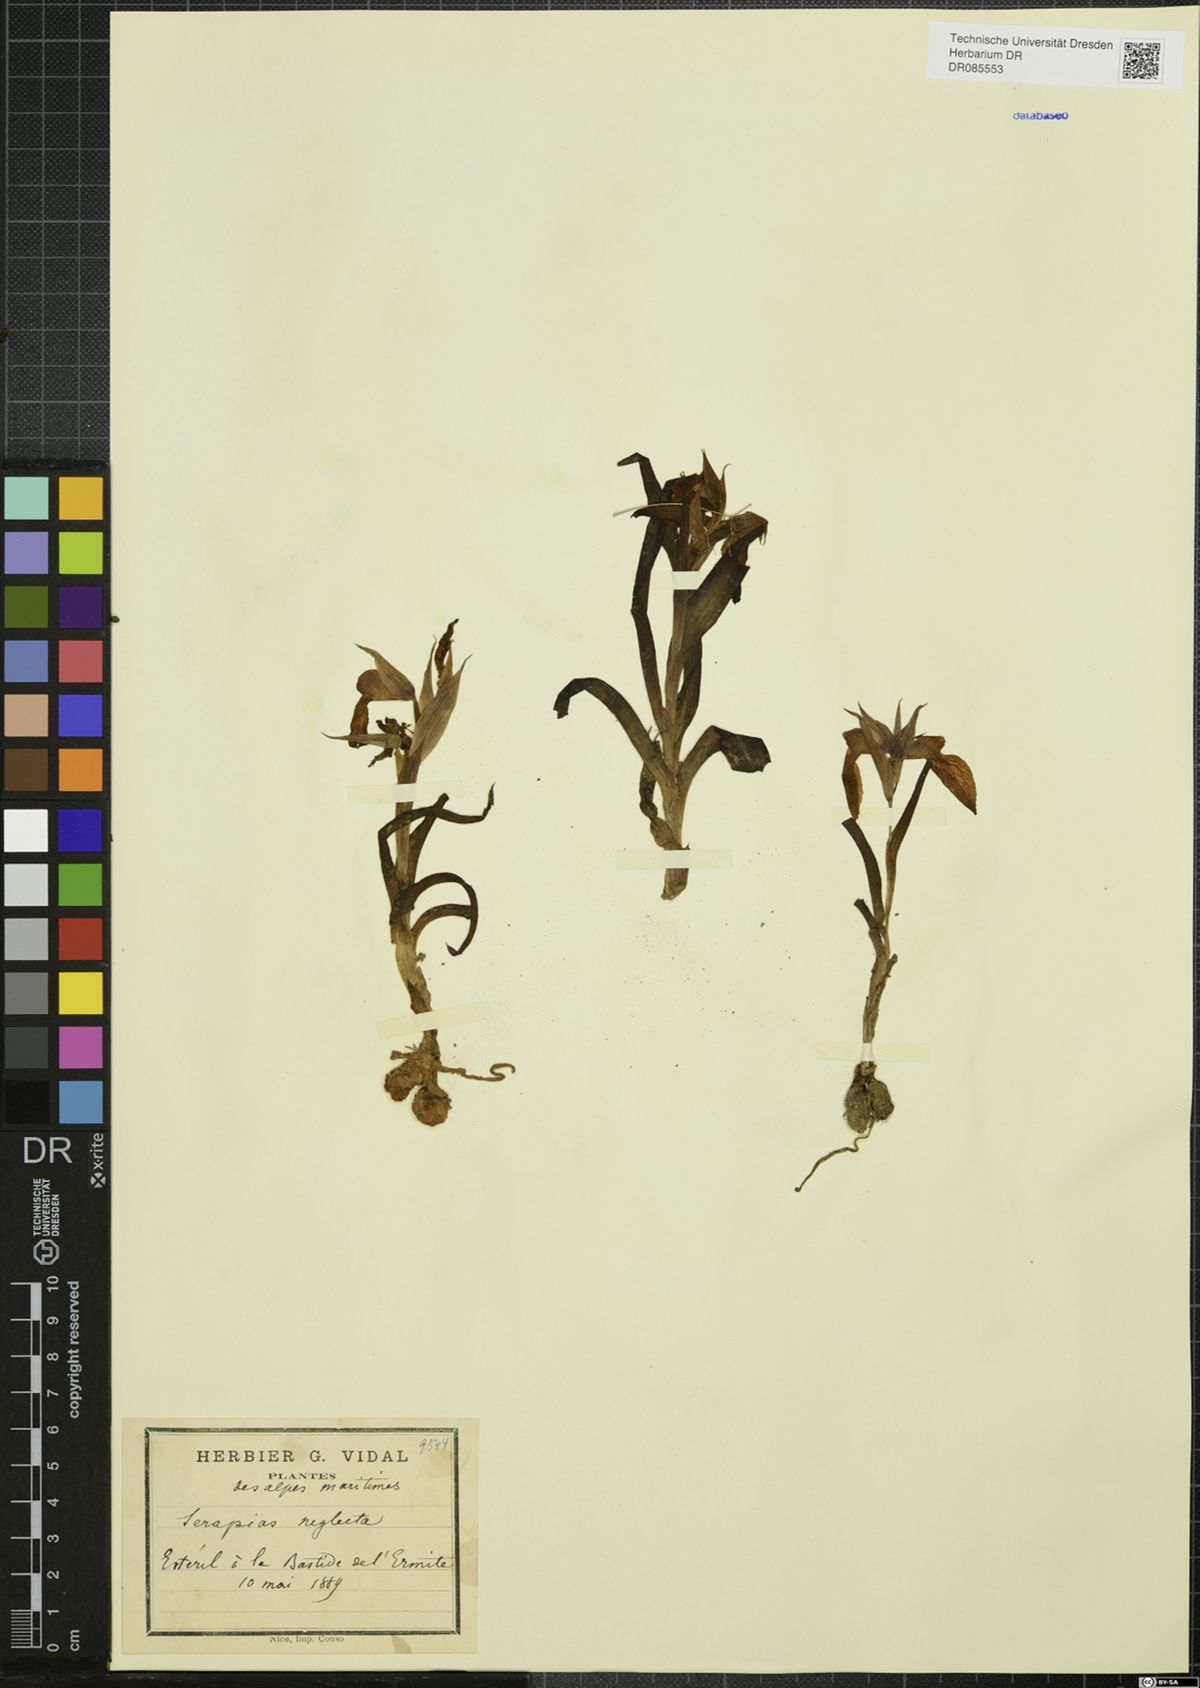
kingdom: Plantae
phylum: Tracheophyta
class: Liliopsida
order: Asparagales
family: Orchidaceae
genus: Serapias
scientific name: Serapias neglecta
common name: Neglected serapias
